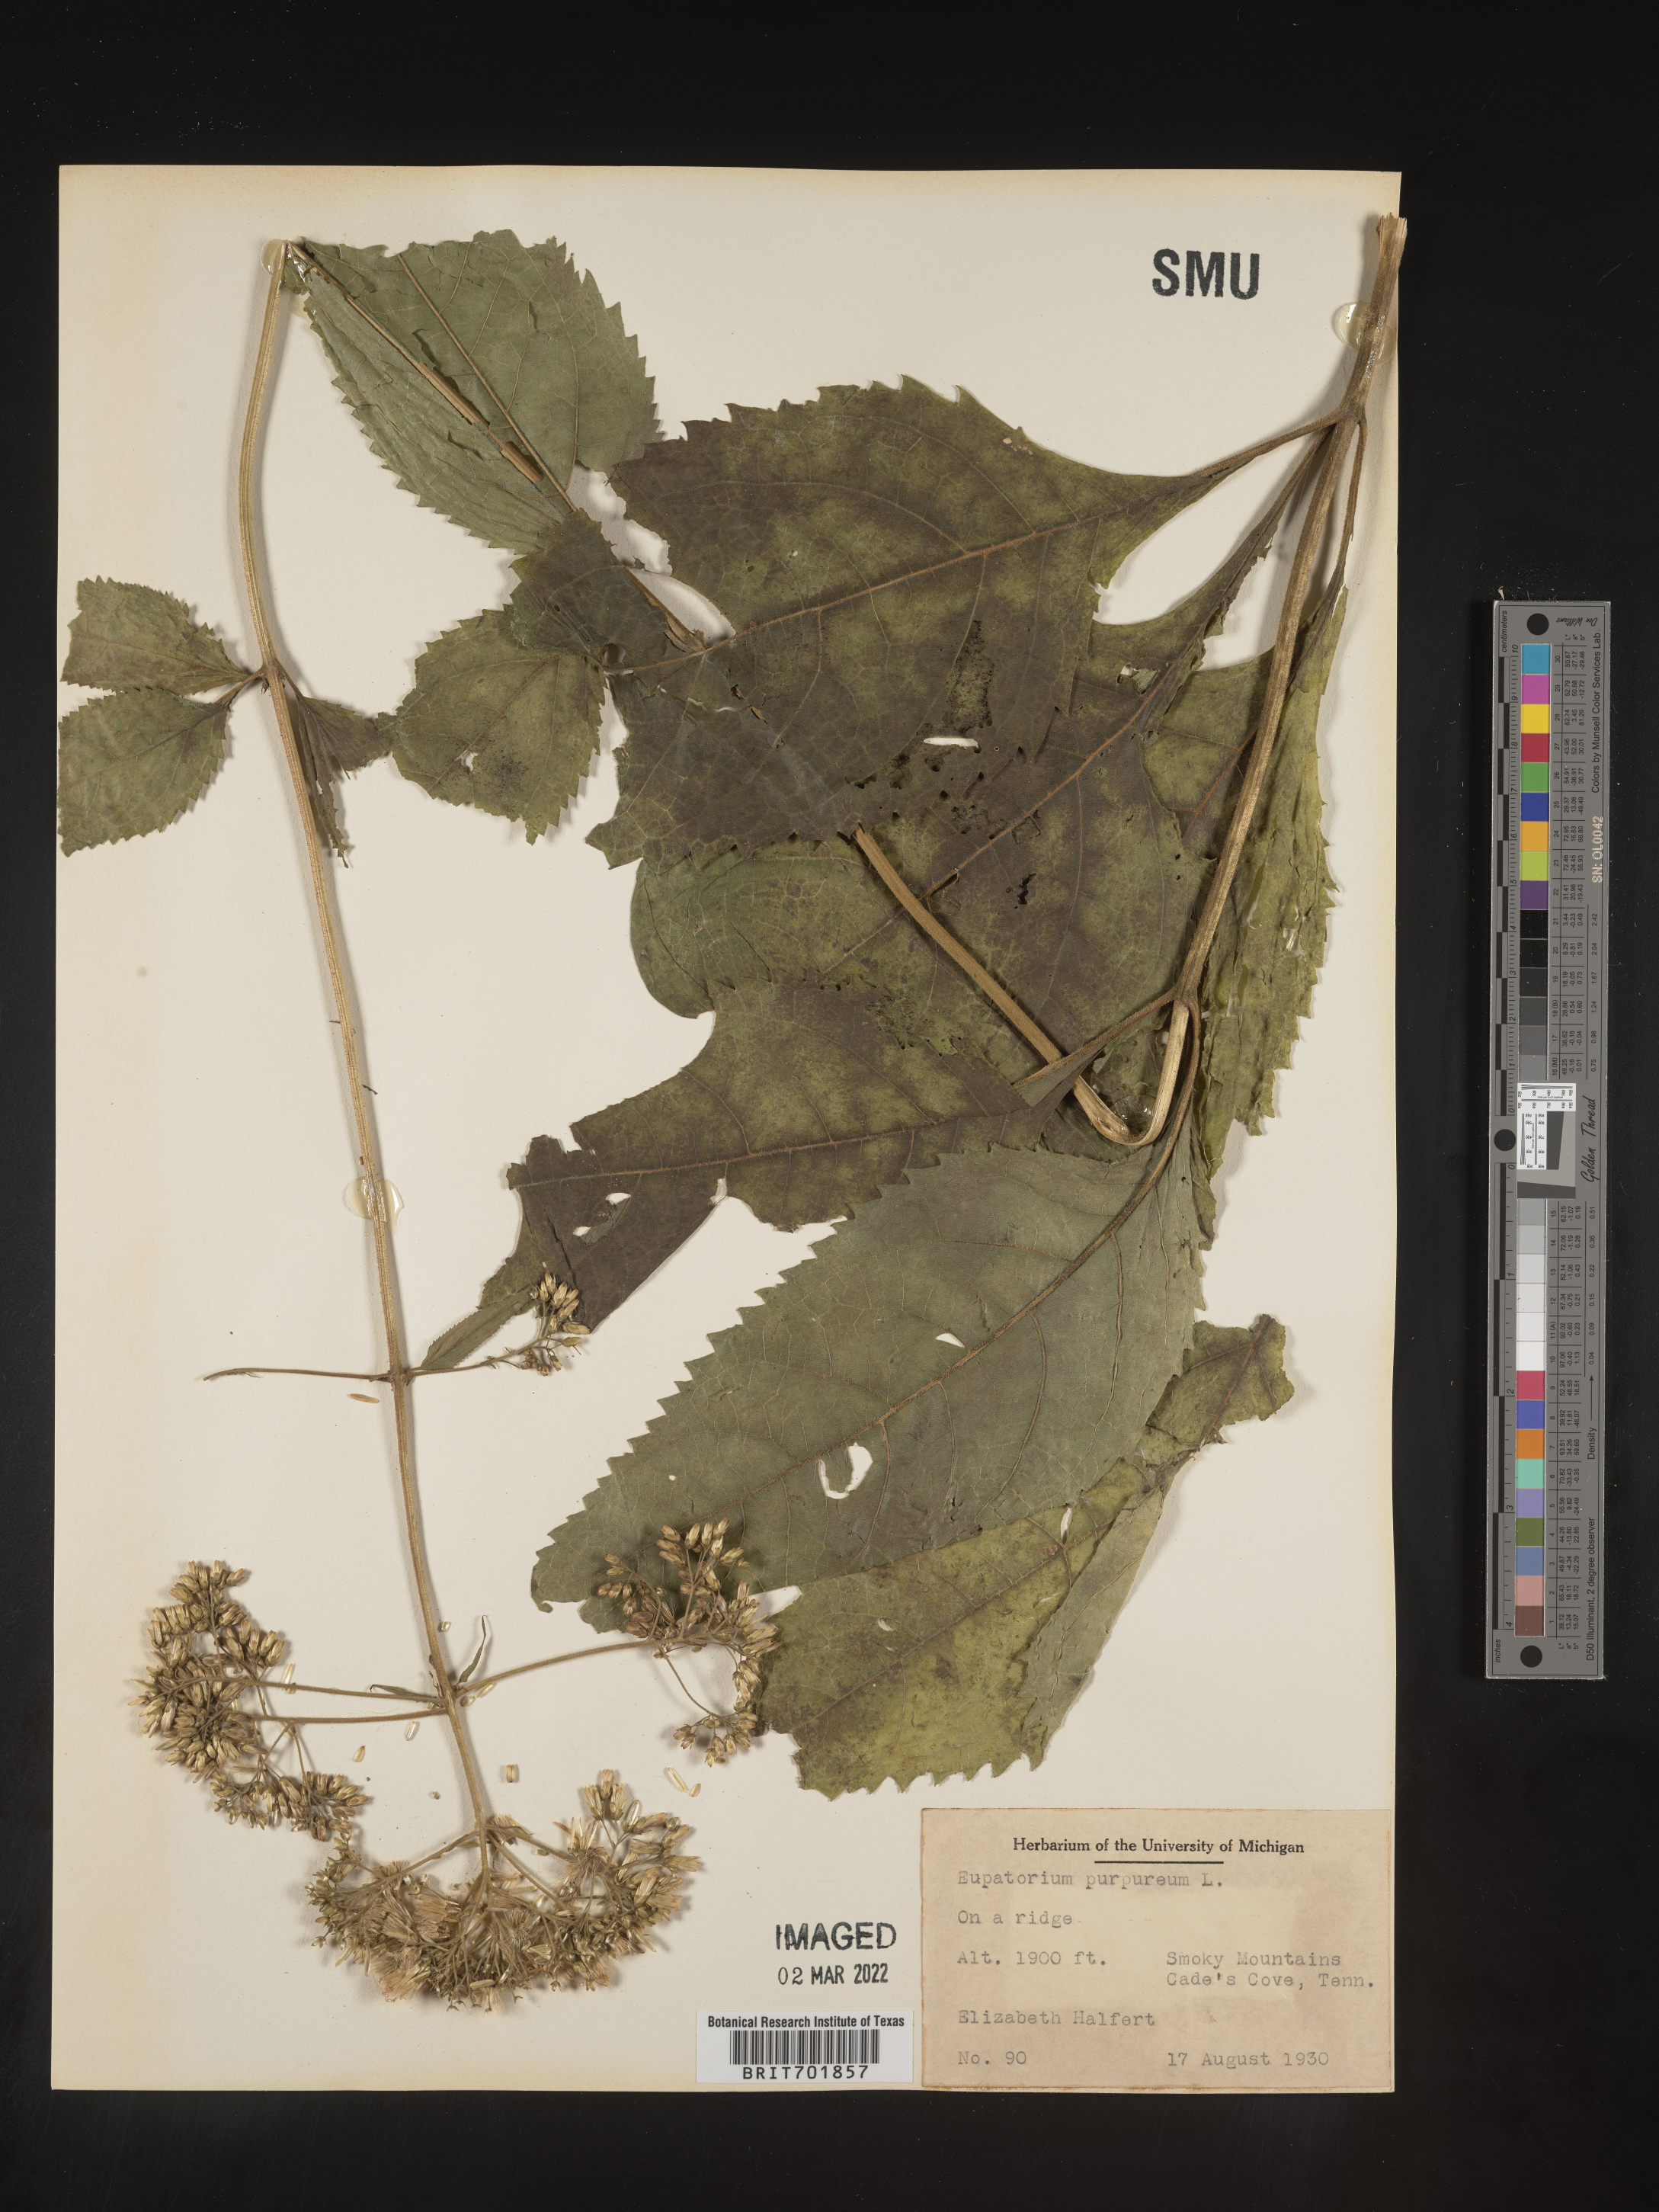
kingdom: Plantae
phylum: Tracheophyta
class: Magnoliopsida
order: Asterales
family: Asteraceae
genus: Eupatorium
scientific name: Eupatorium quaternum
